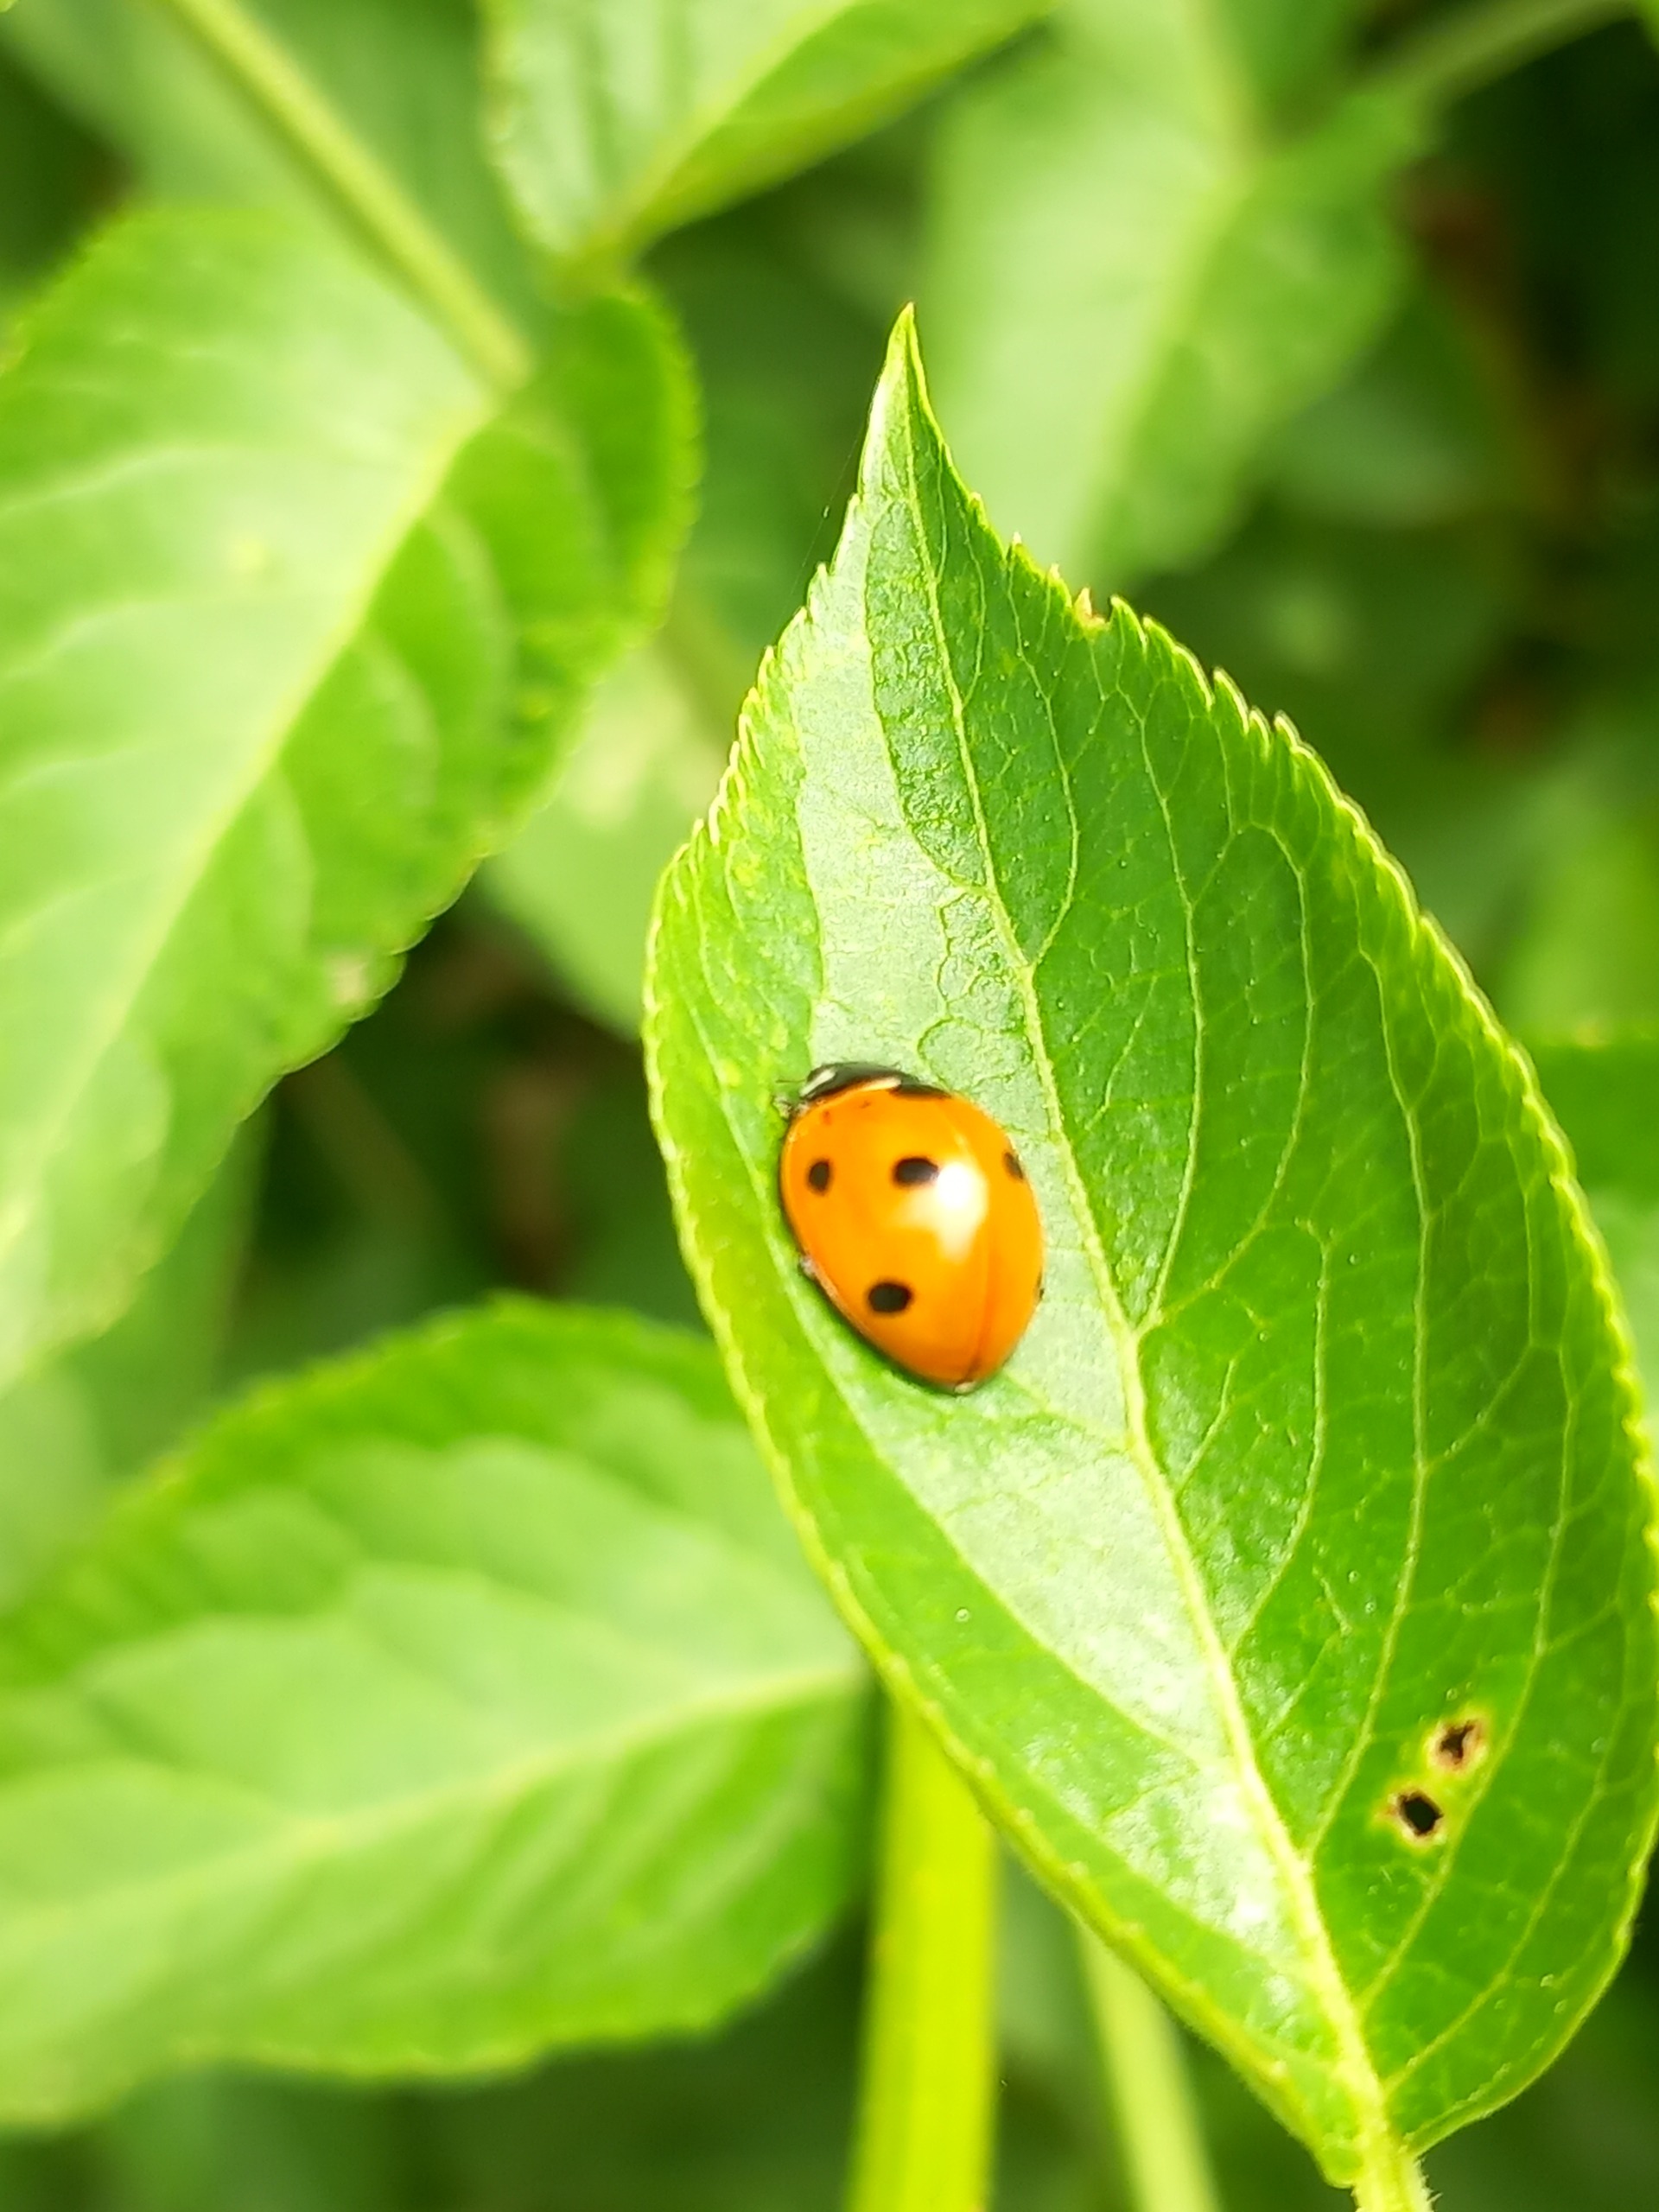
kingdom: Animalia
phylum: Arthropoda
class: Insecta
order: Coleoptera
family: Coccinellidae
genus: Coccinella
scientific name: Coccinella septempunctata
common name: Syvplettet mariehøne
